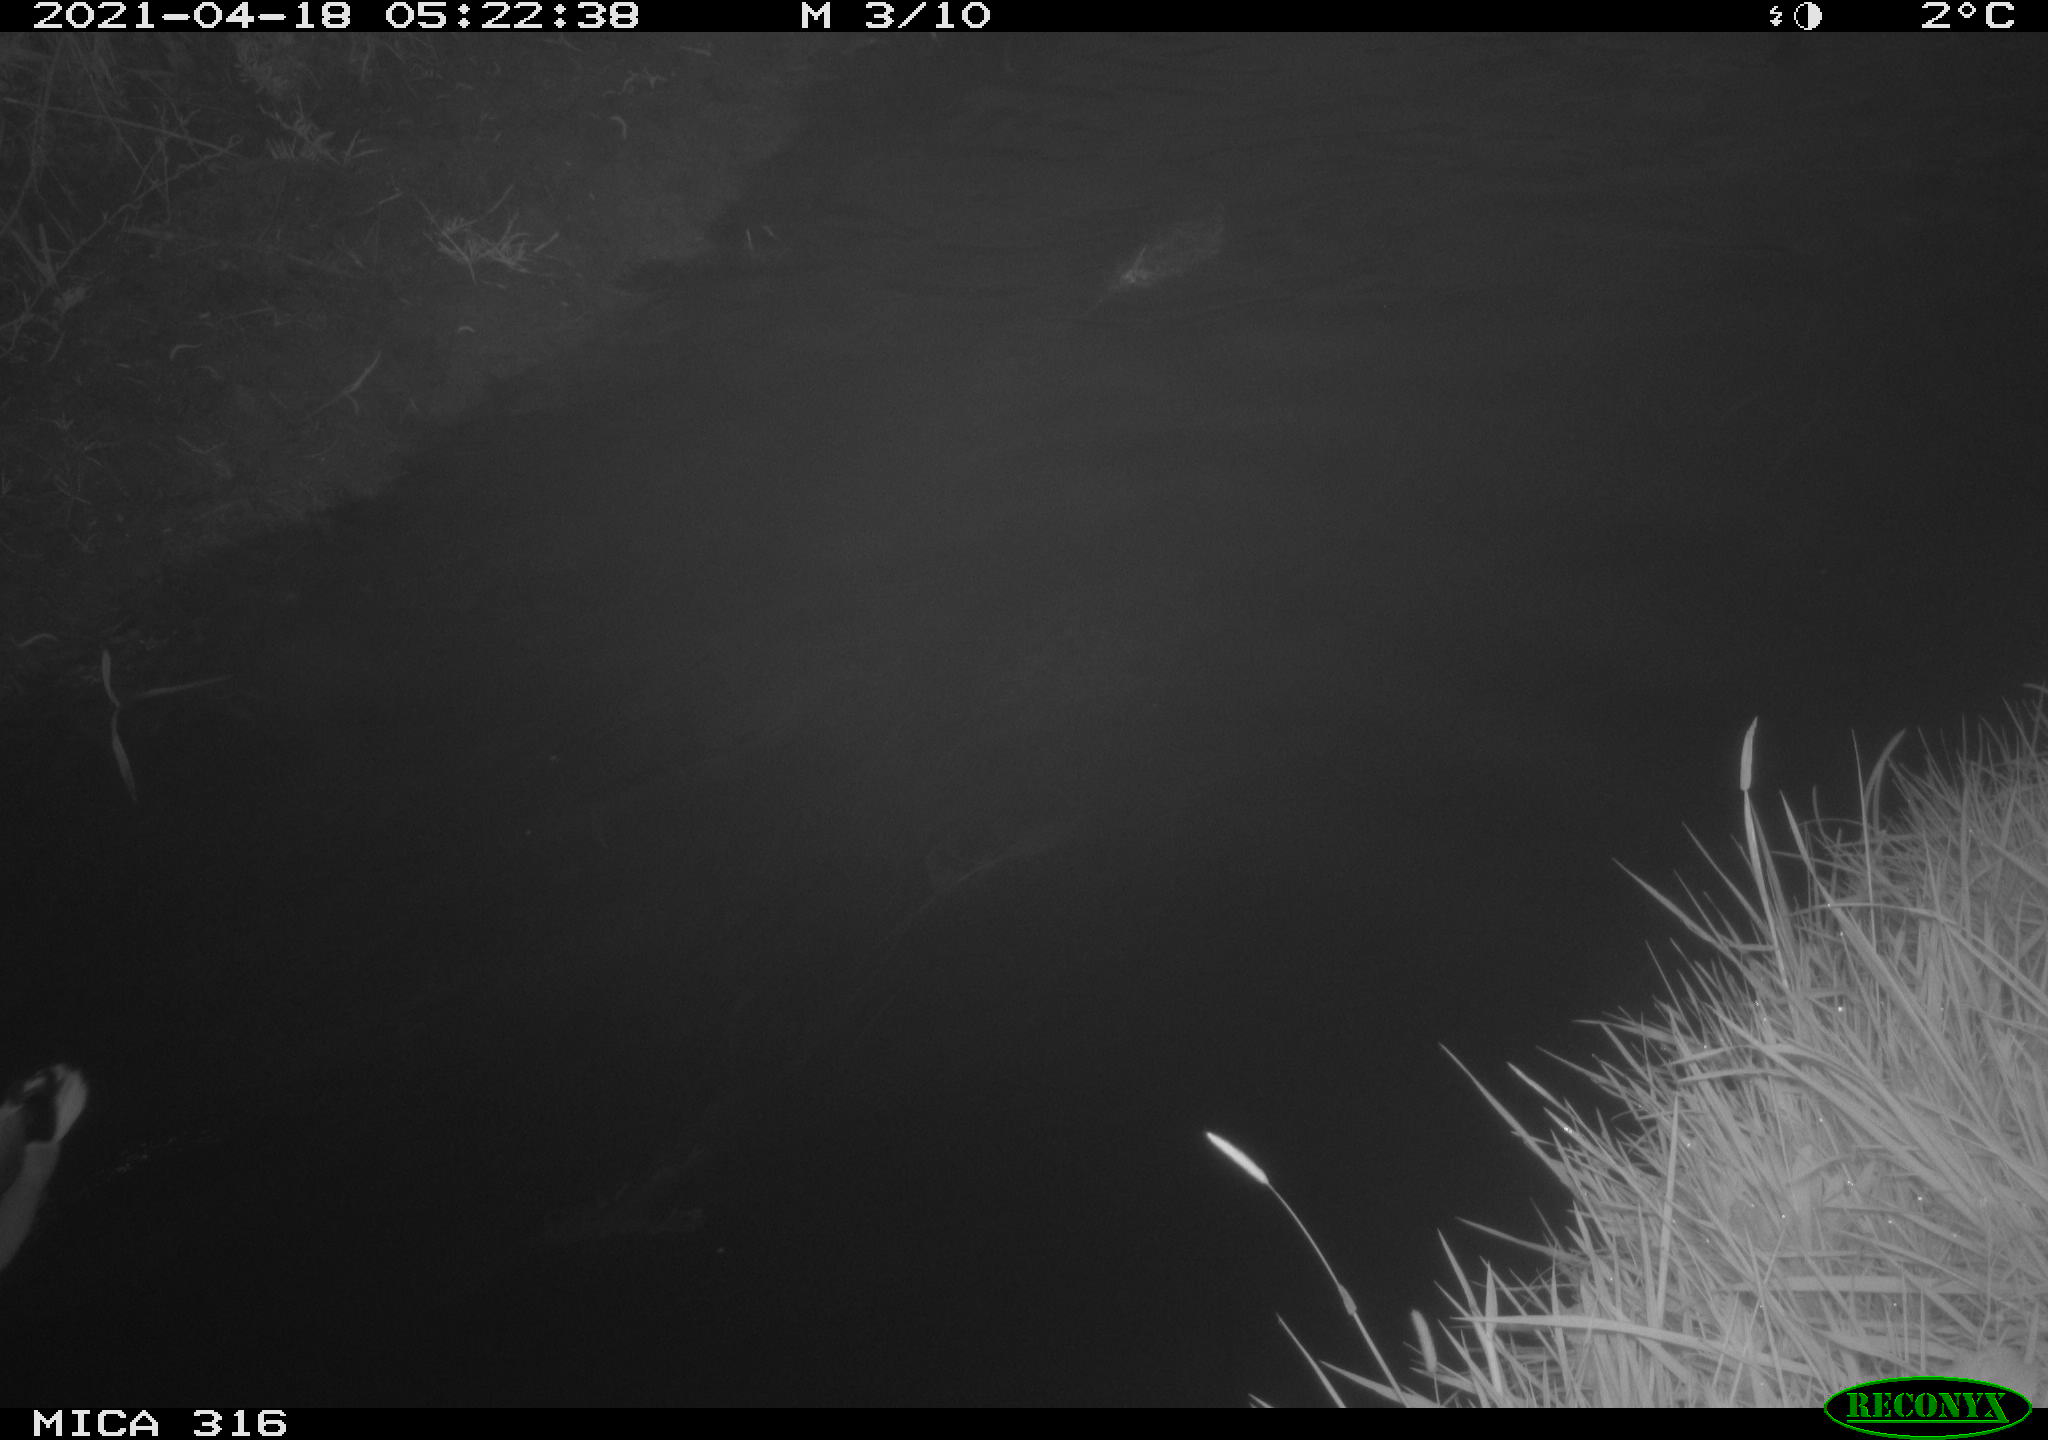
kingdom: Animalia
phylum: Chordata
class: Aves
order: Anseriformes
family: Anatidae
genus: Anas
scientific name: Anas platyrhynchos
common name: Mallard
